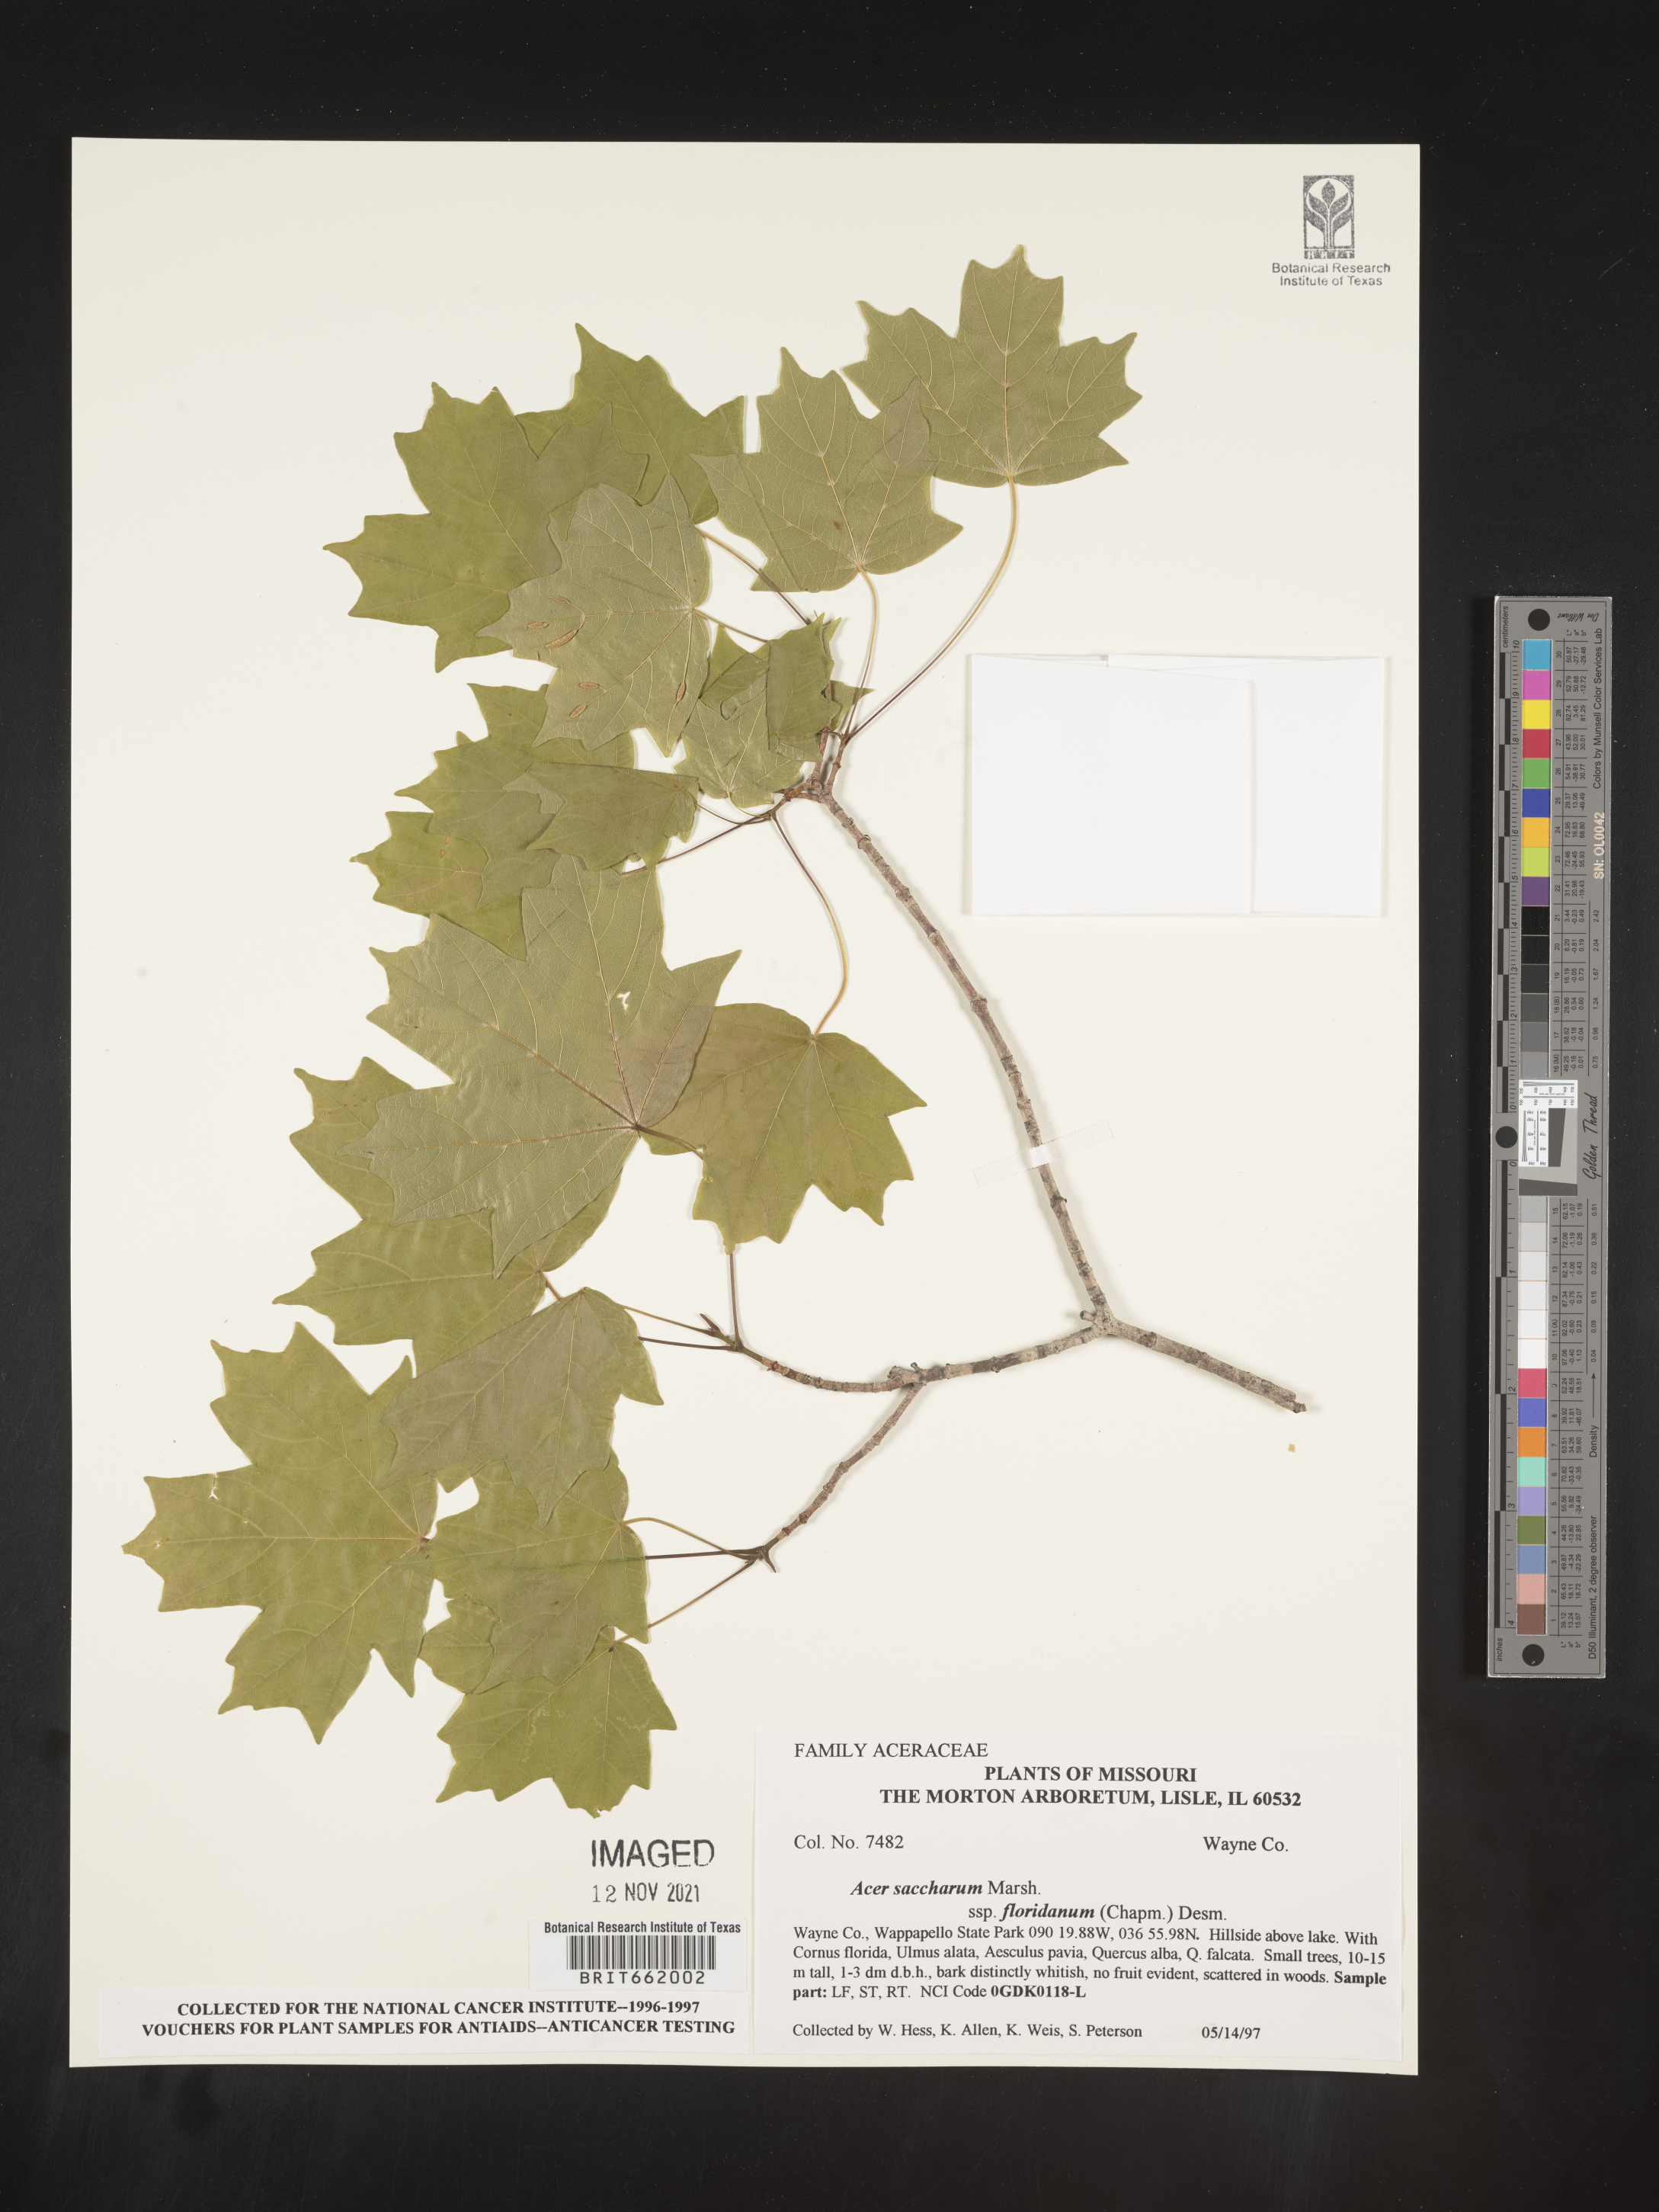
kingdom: Plantae
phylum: Tracheophyta
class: Magnoliopsida
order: Sapindales
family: Sapindaceae
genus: Acer
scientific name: Acer saccharum
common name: Sugar maple
